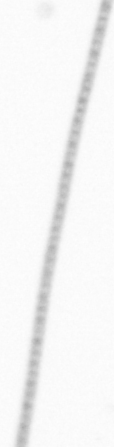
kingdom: Chromista
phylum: Ochrophyta
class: Bacillariophyceae
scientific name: Bacillariophyceae
